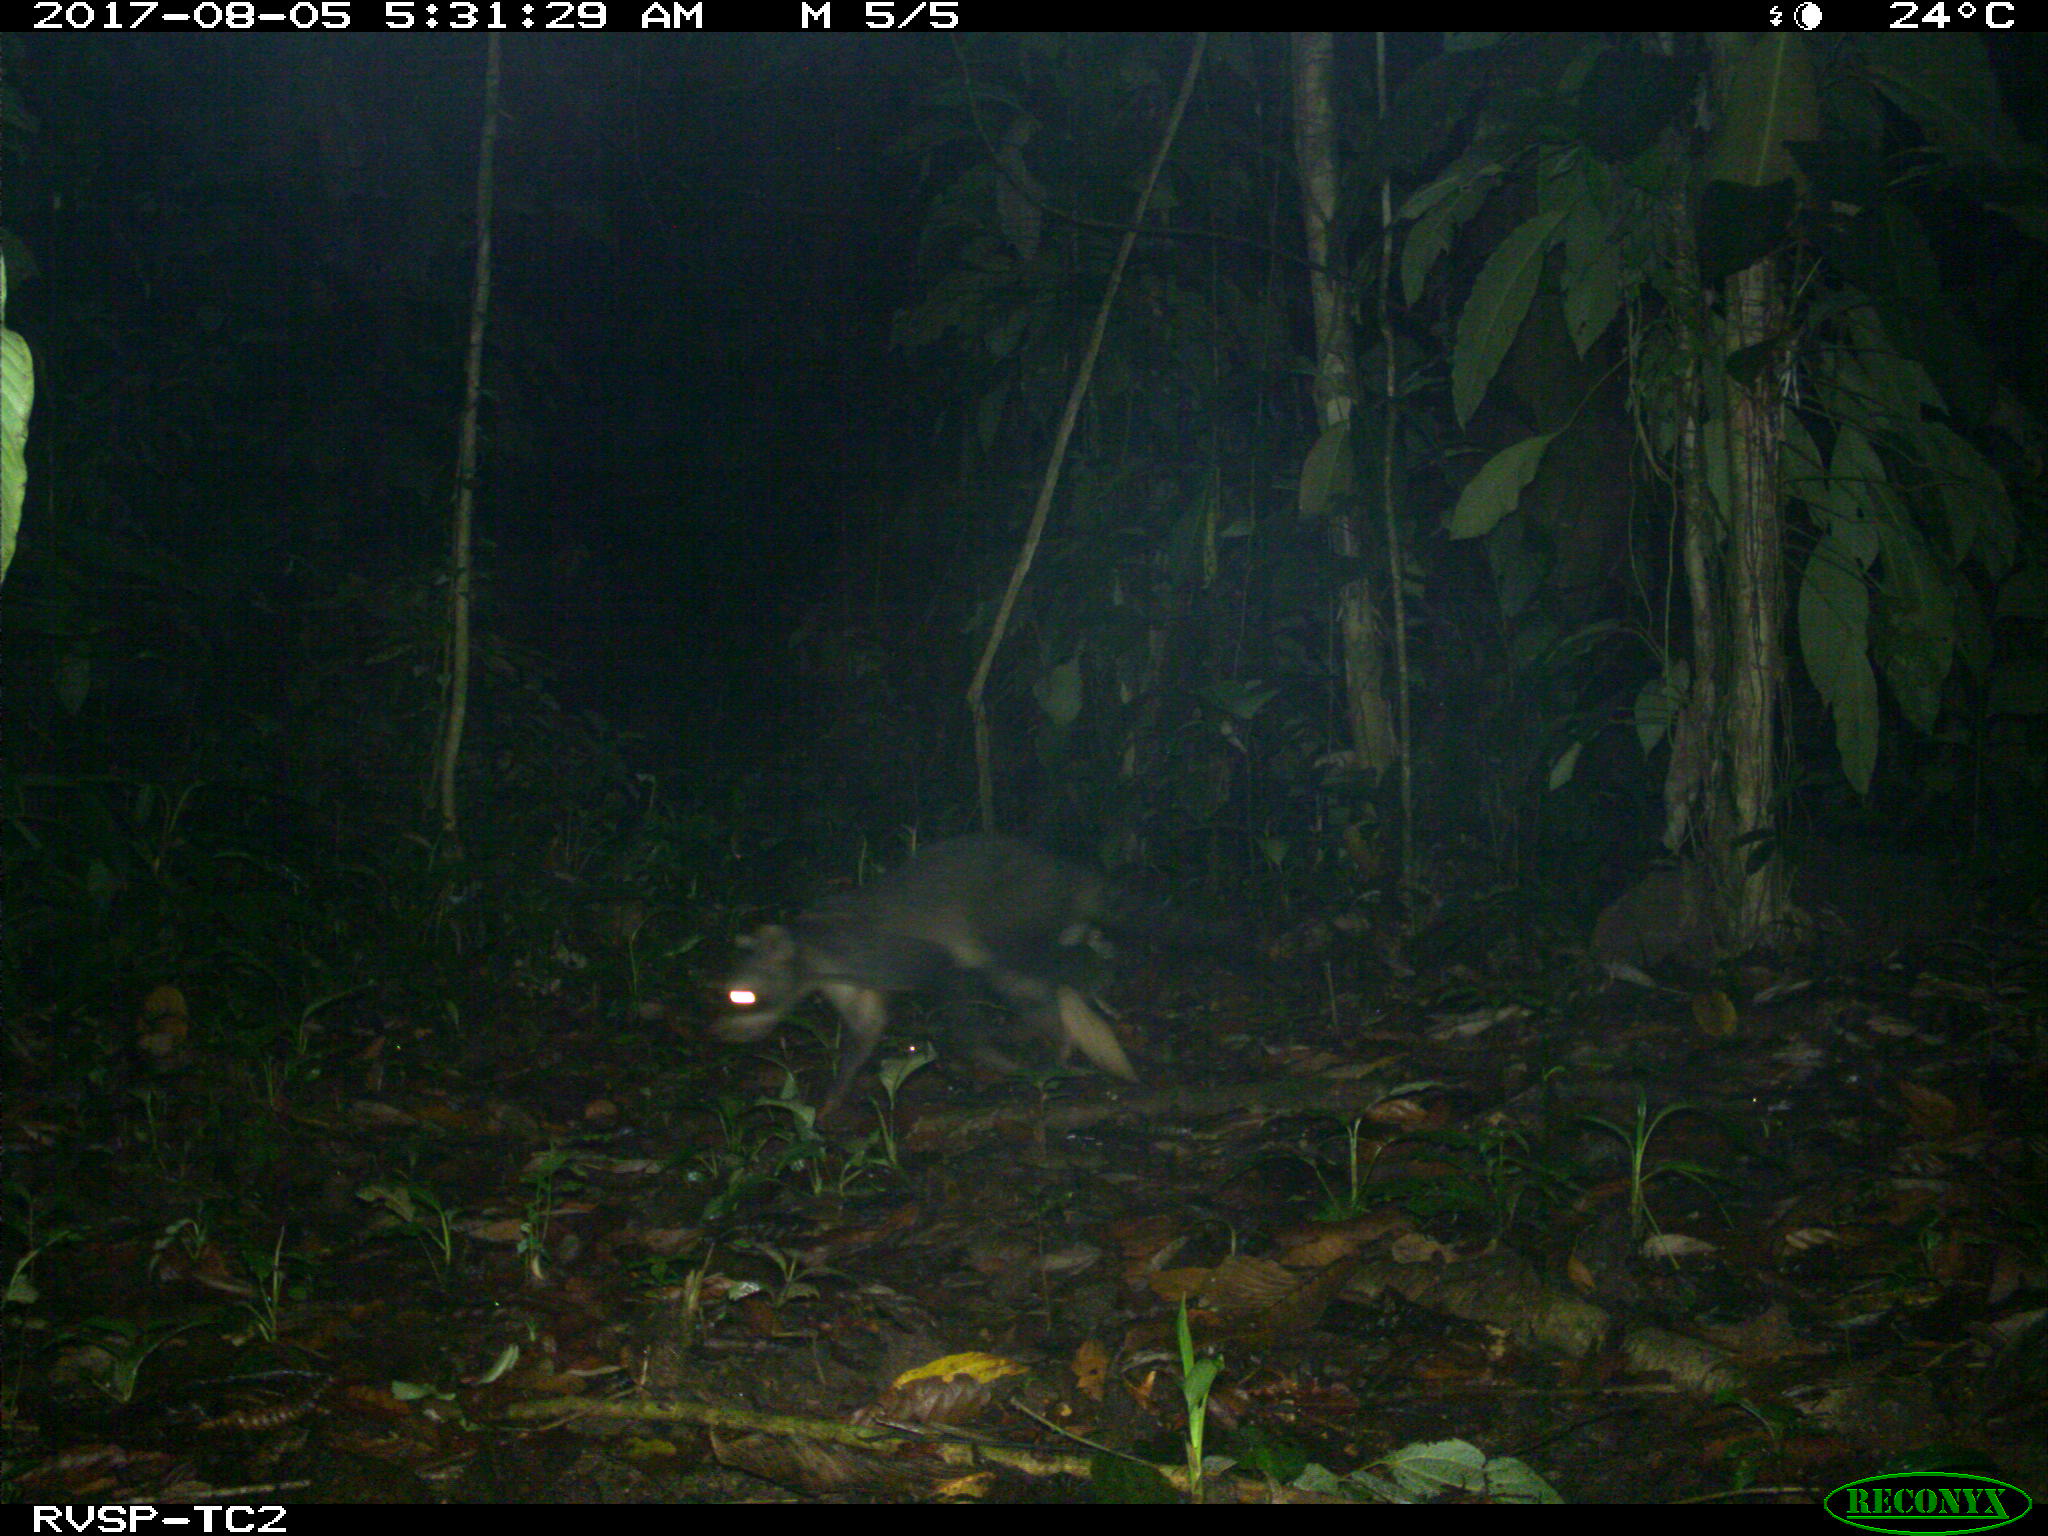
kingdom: Animalia
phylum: Chordata
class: Mammalia
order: Carnivora
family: Procyonidae
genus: Procyon
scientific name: Procyon cancrivorus
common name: Crab-eating raccoon
